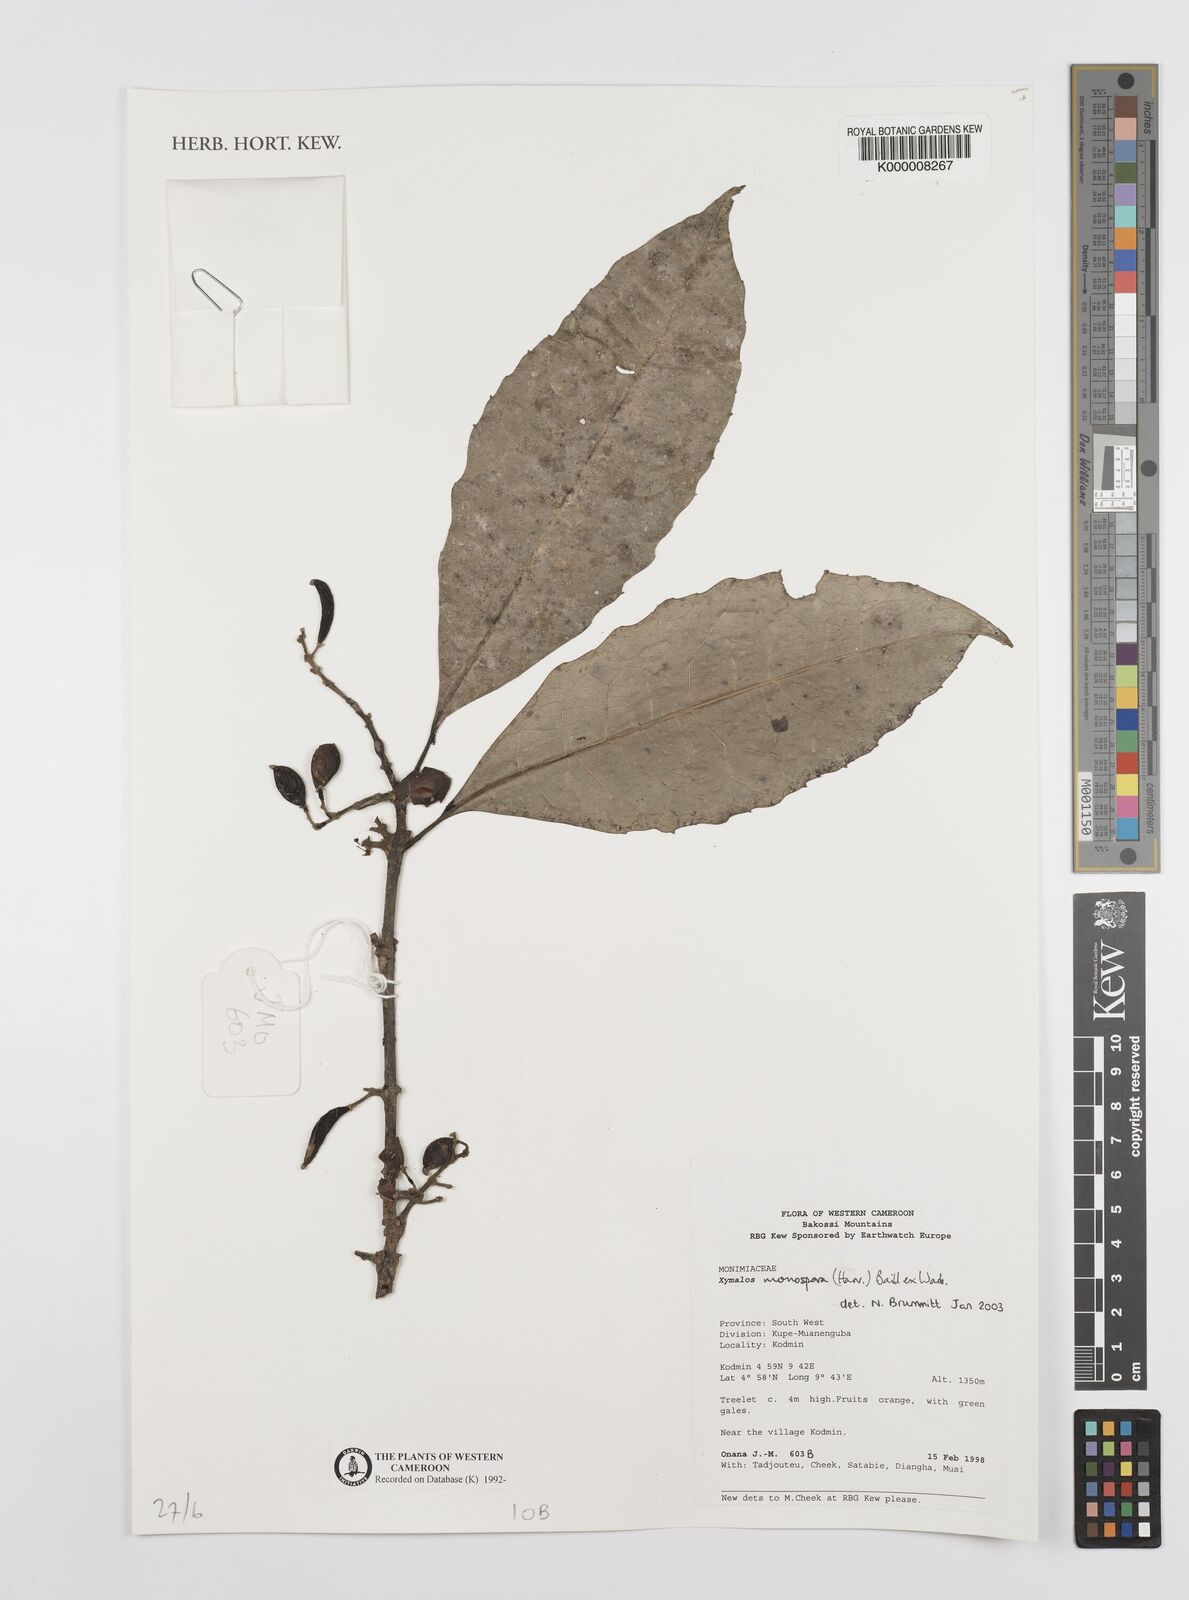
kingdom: Plantae
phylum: Tracheophyta
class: Magnoliopsida
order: Laurales
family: Monimiaceae
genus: Xymalos
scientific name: Xymalos
